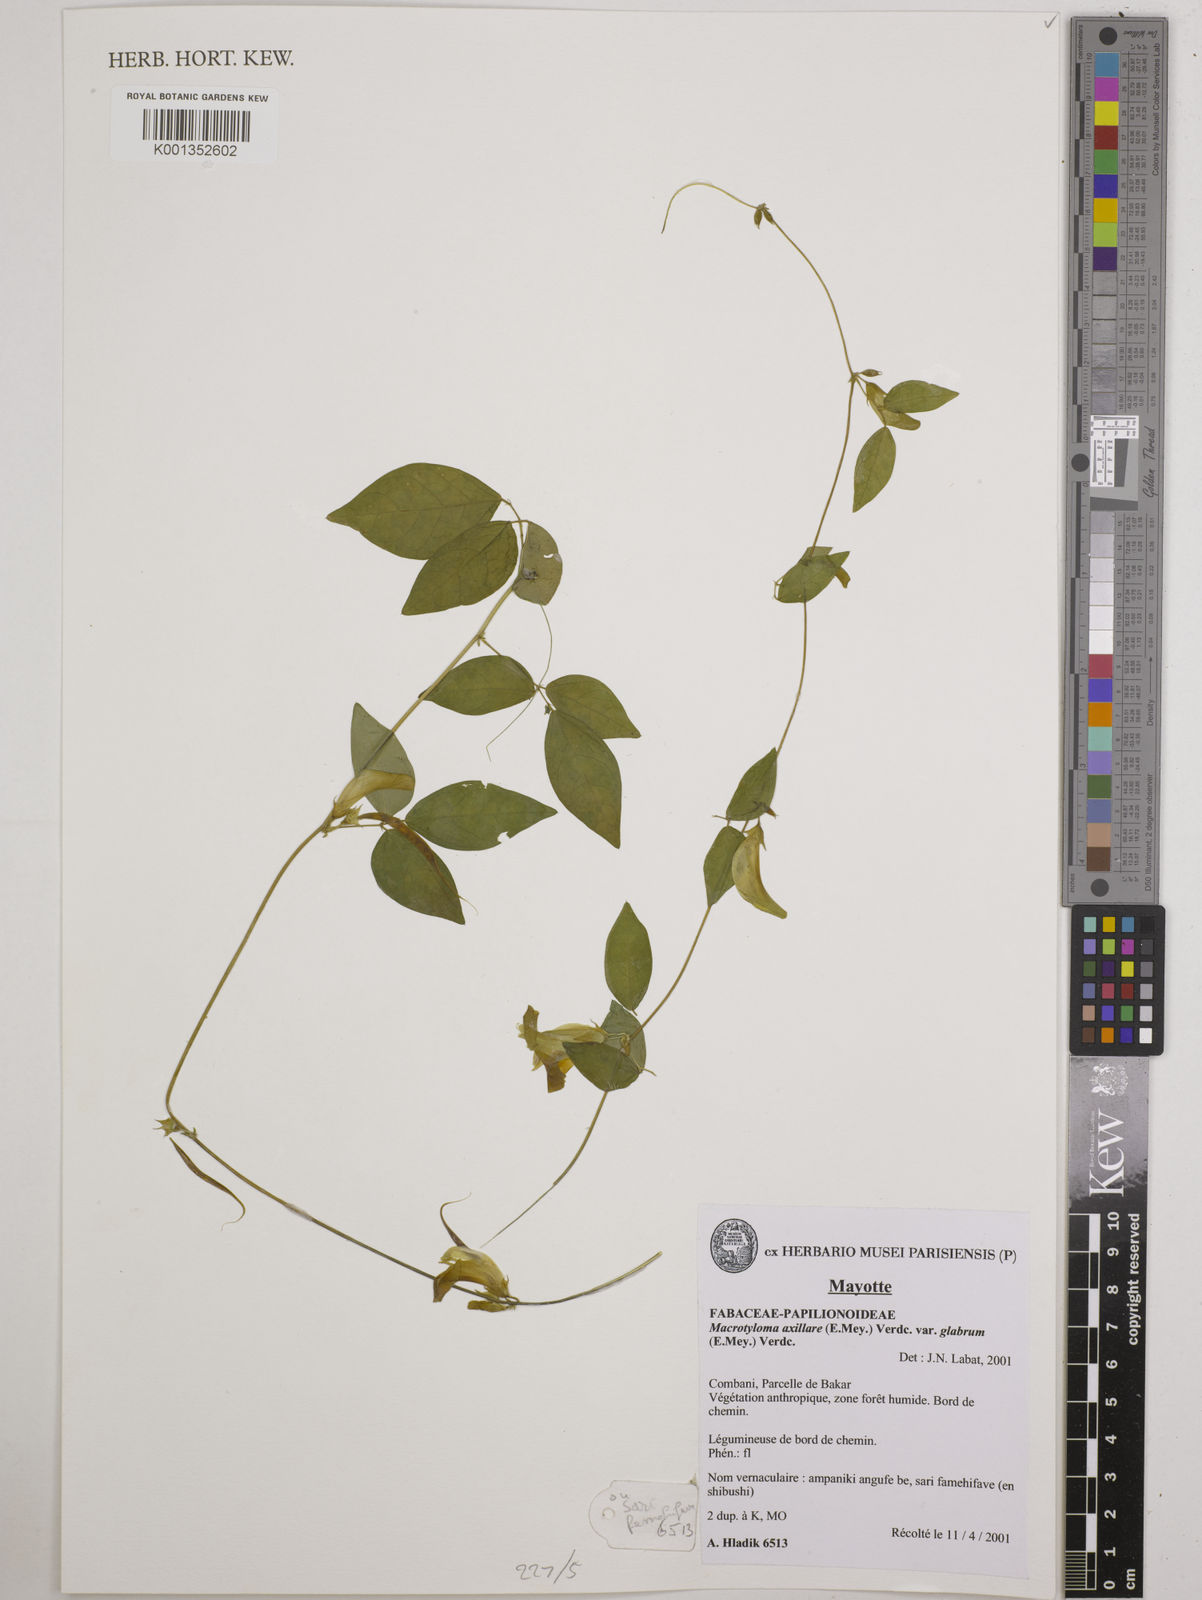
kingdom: Plantae
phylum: Tracheophyta
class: Magnoliopsida
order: Fabales
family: Fabaceae
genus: Macrotyloma
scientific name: Macrotyloma
